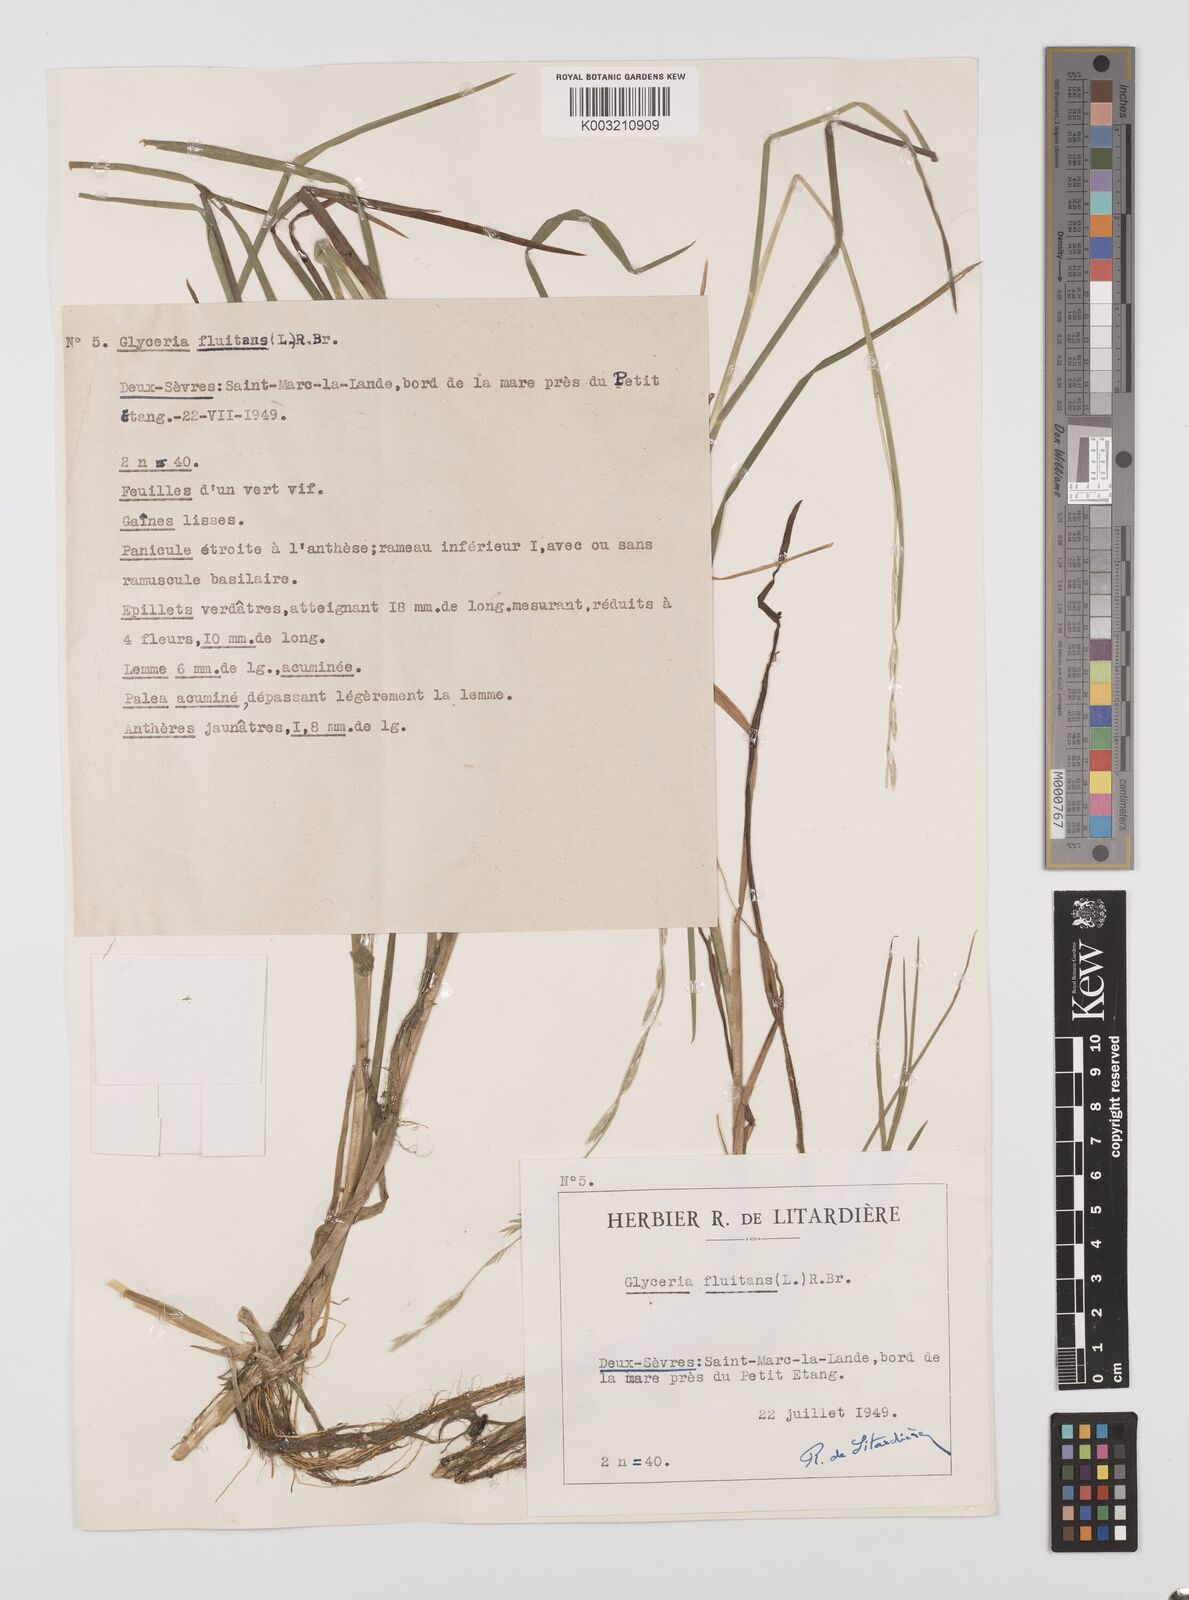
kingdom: Plantae
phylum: Tracheophyta
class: Liliopsida
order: Poales
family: Poaceae
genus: Glyceria
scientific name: Glyceria fluitans
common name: Floating sweet-grass
